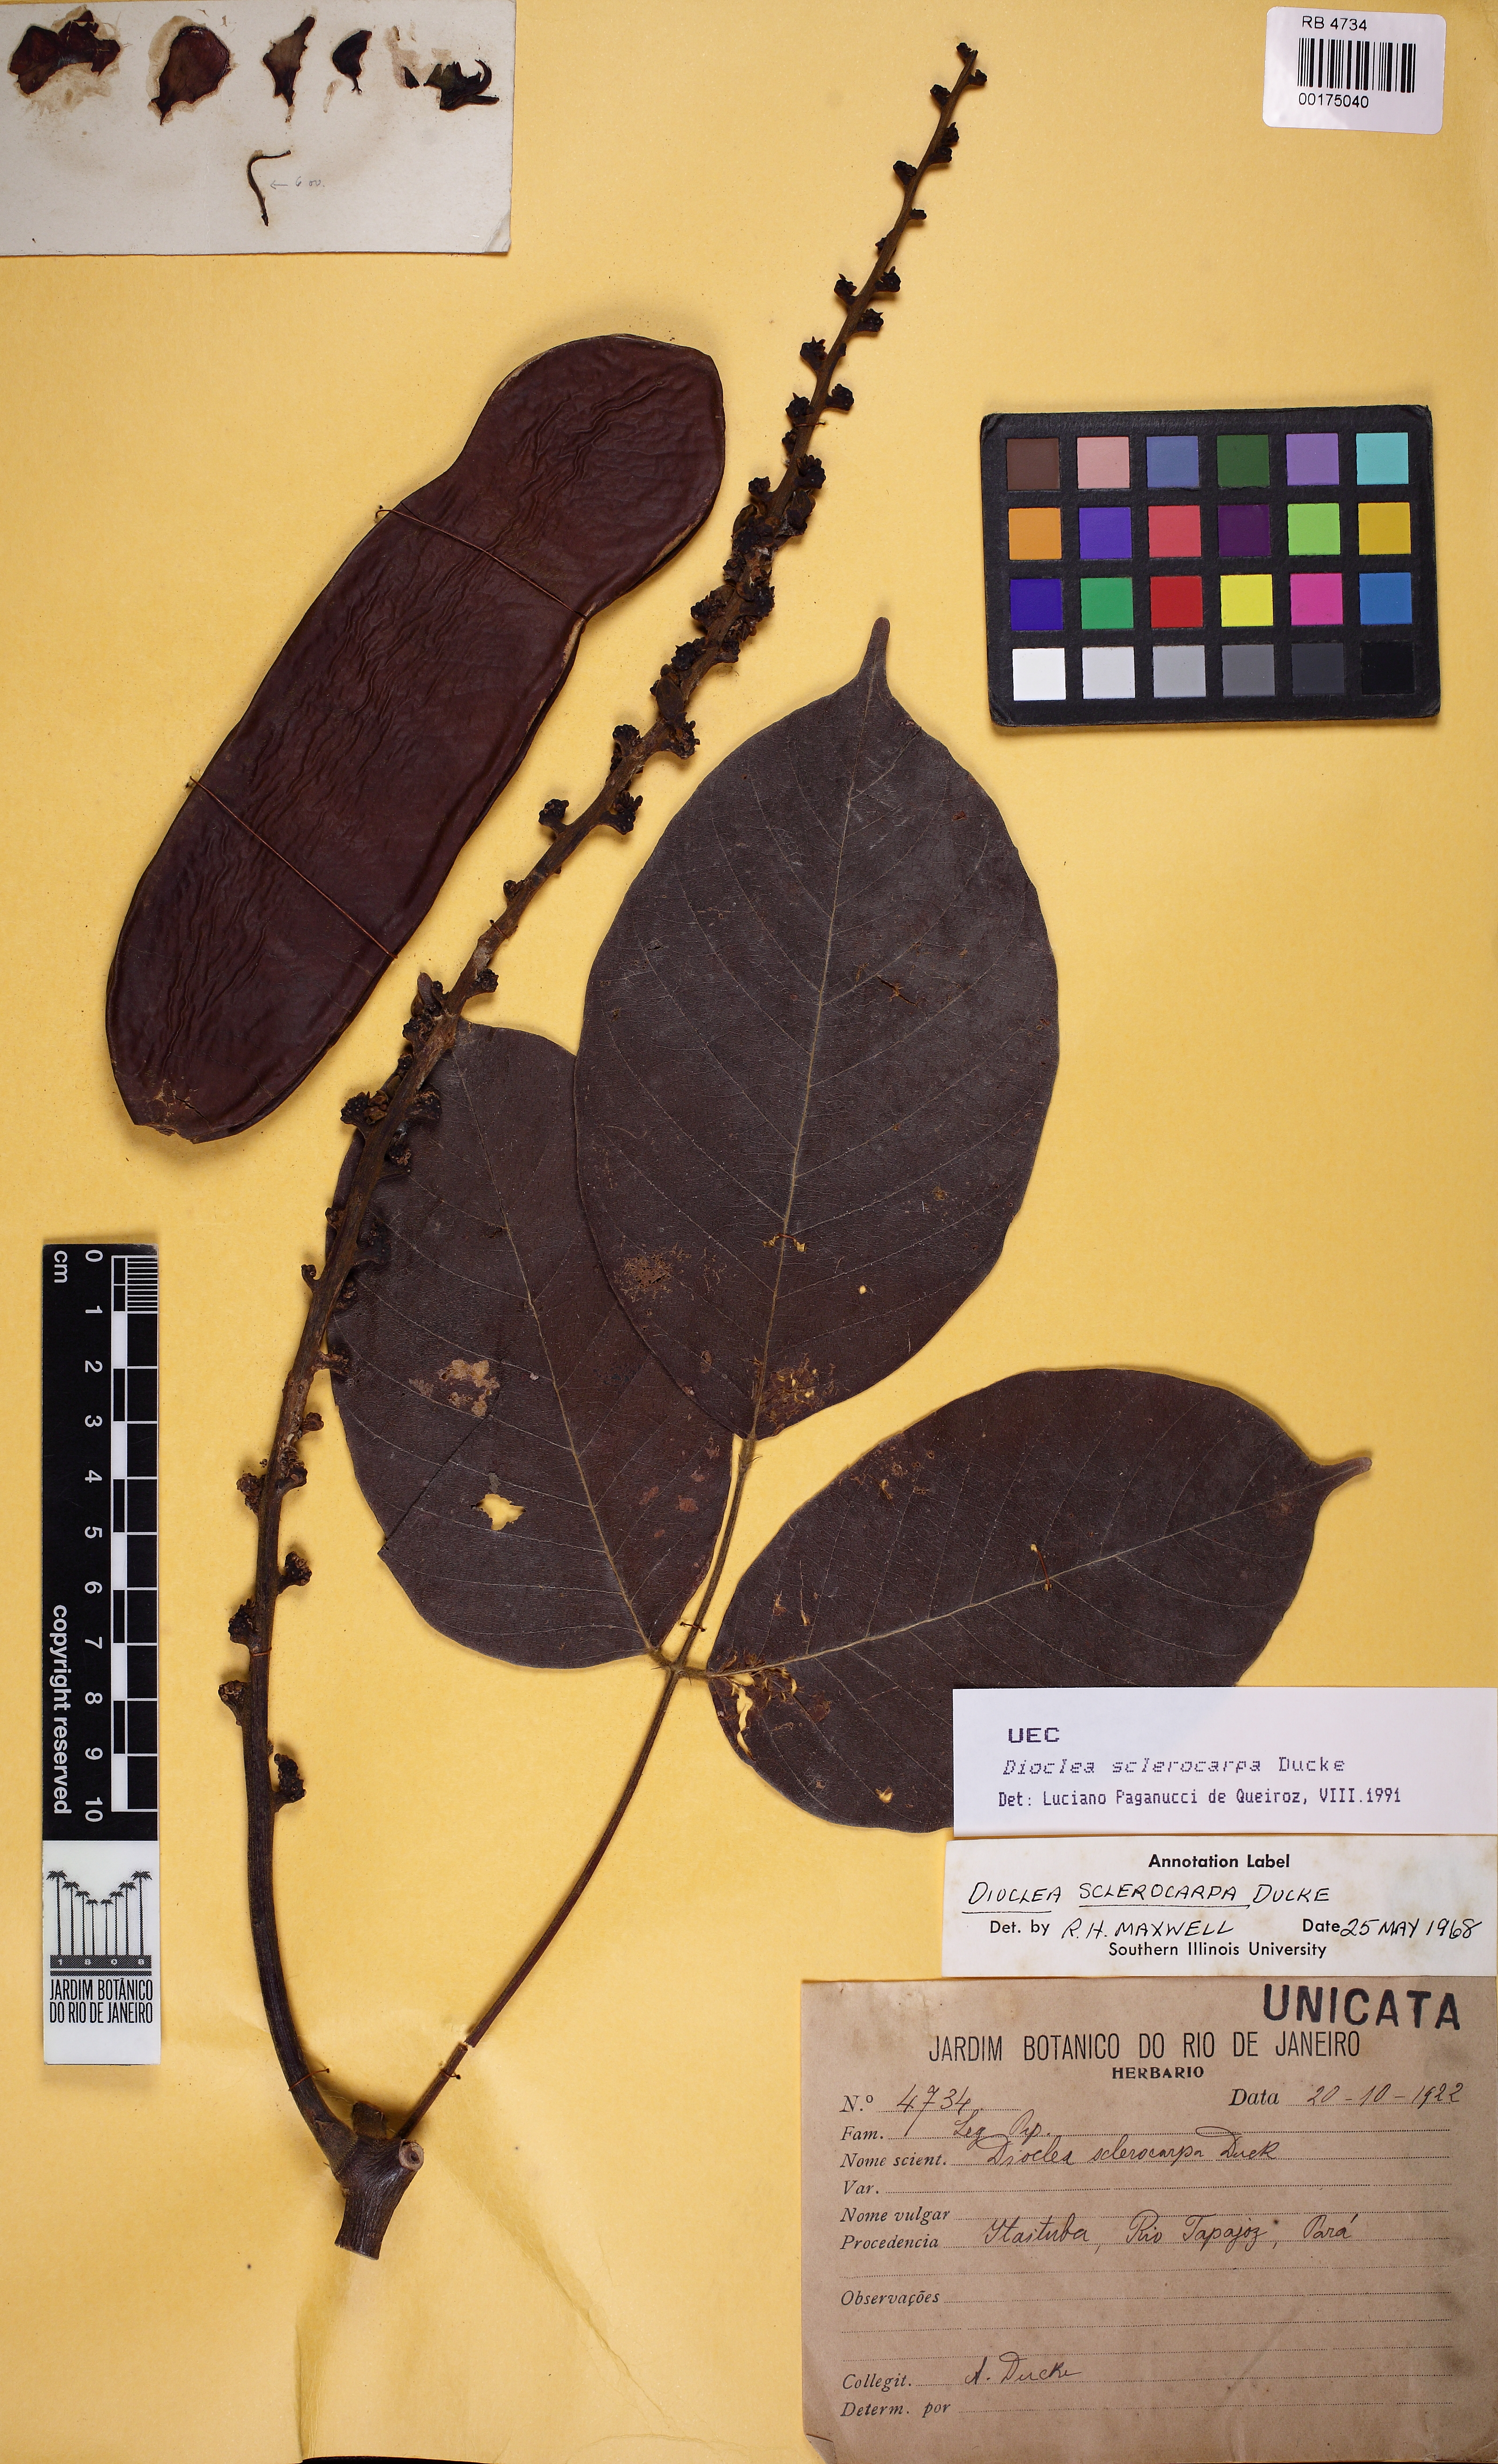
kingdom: Plantae
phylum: Tracheophyta
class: Magnoliopsida
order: Fabales
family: Fabaceae
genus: Macropsychanthus
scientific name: Macropsychanthus sclerocarpus
